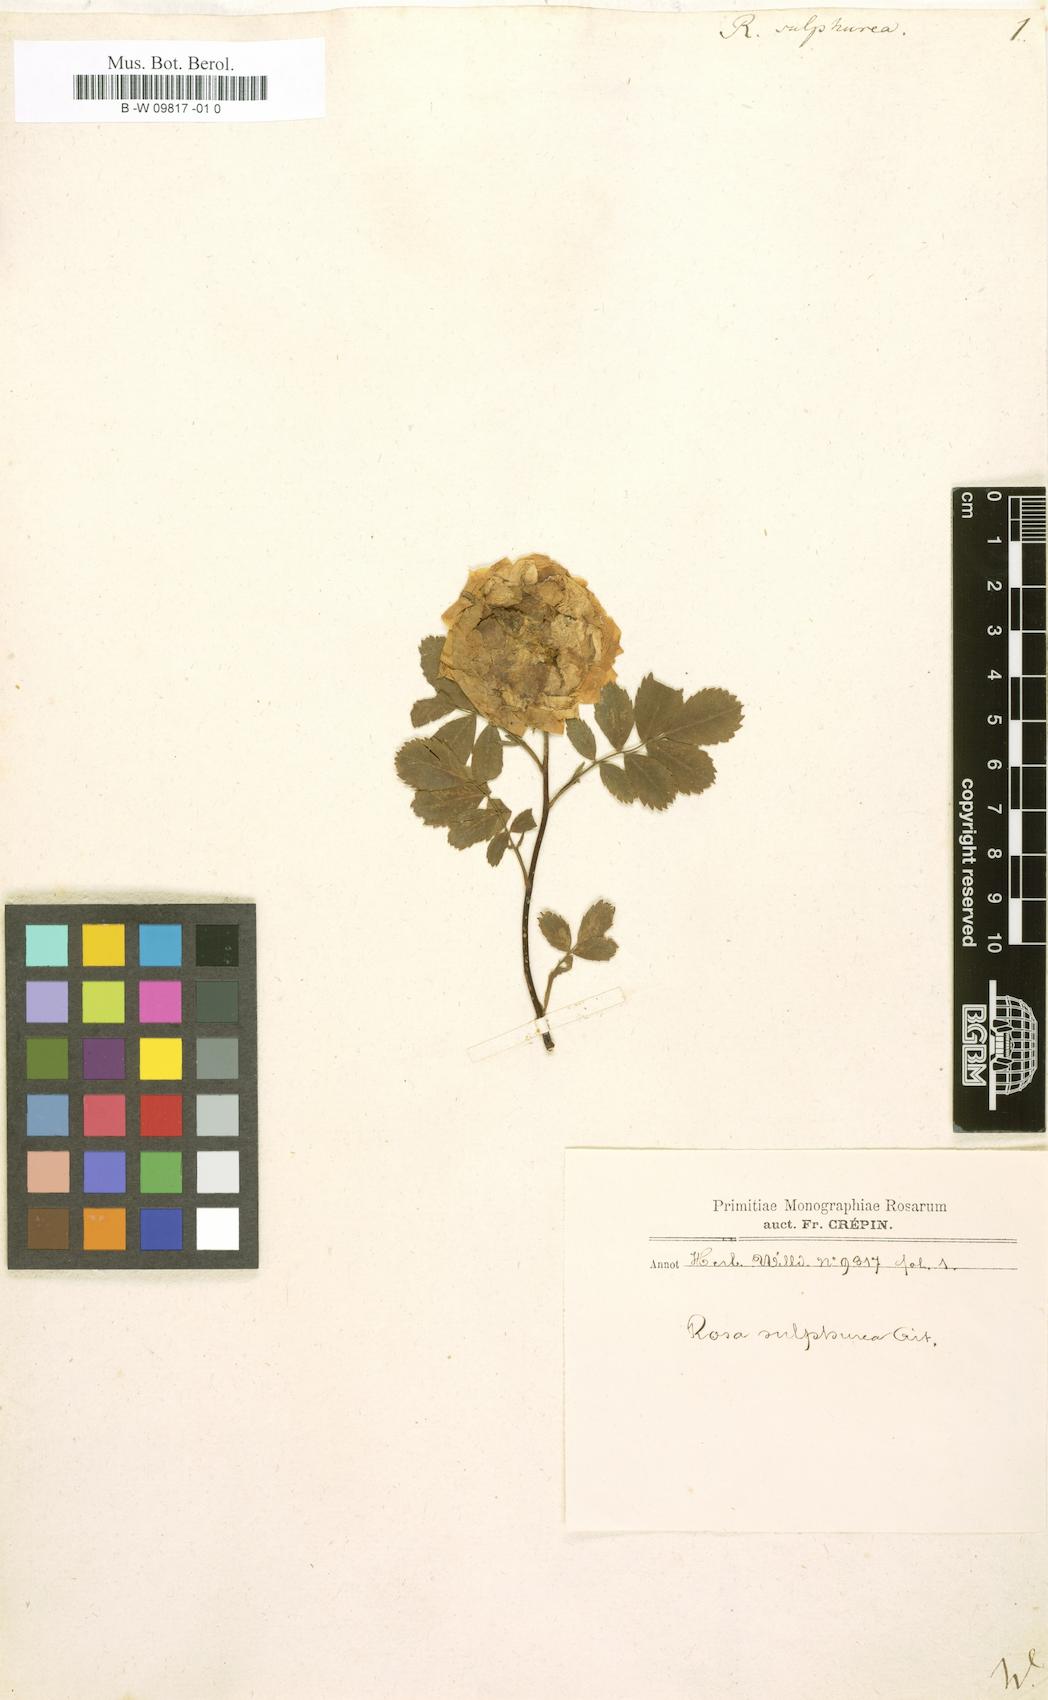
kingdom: Plantae
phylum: Tracheophyta
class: Magnoliopsida
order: Rosales
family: Rosaceae
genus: Rosa
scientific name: Rosa hemisphaerica
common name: Sulphur rose
